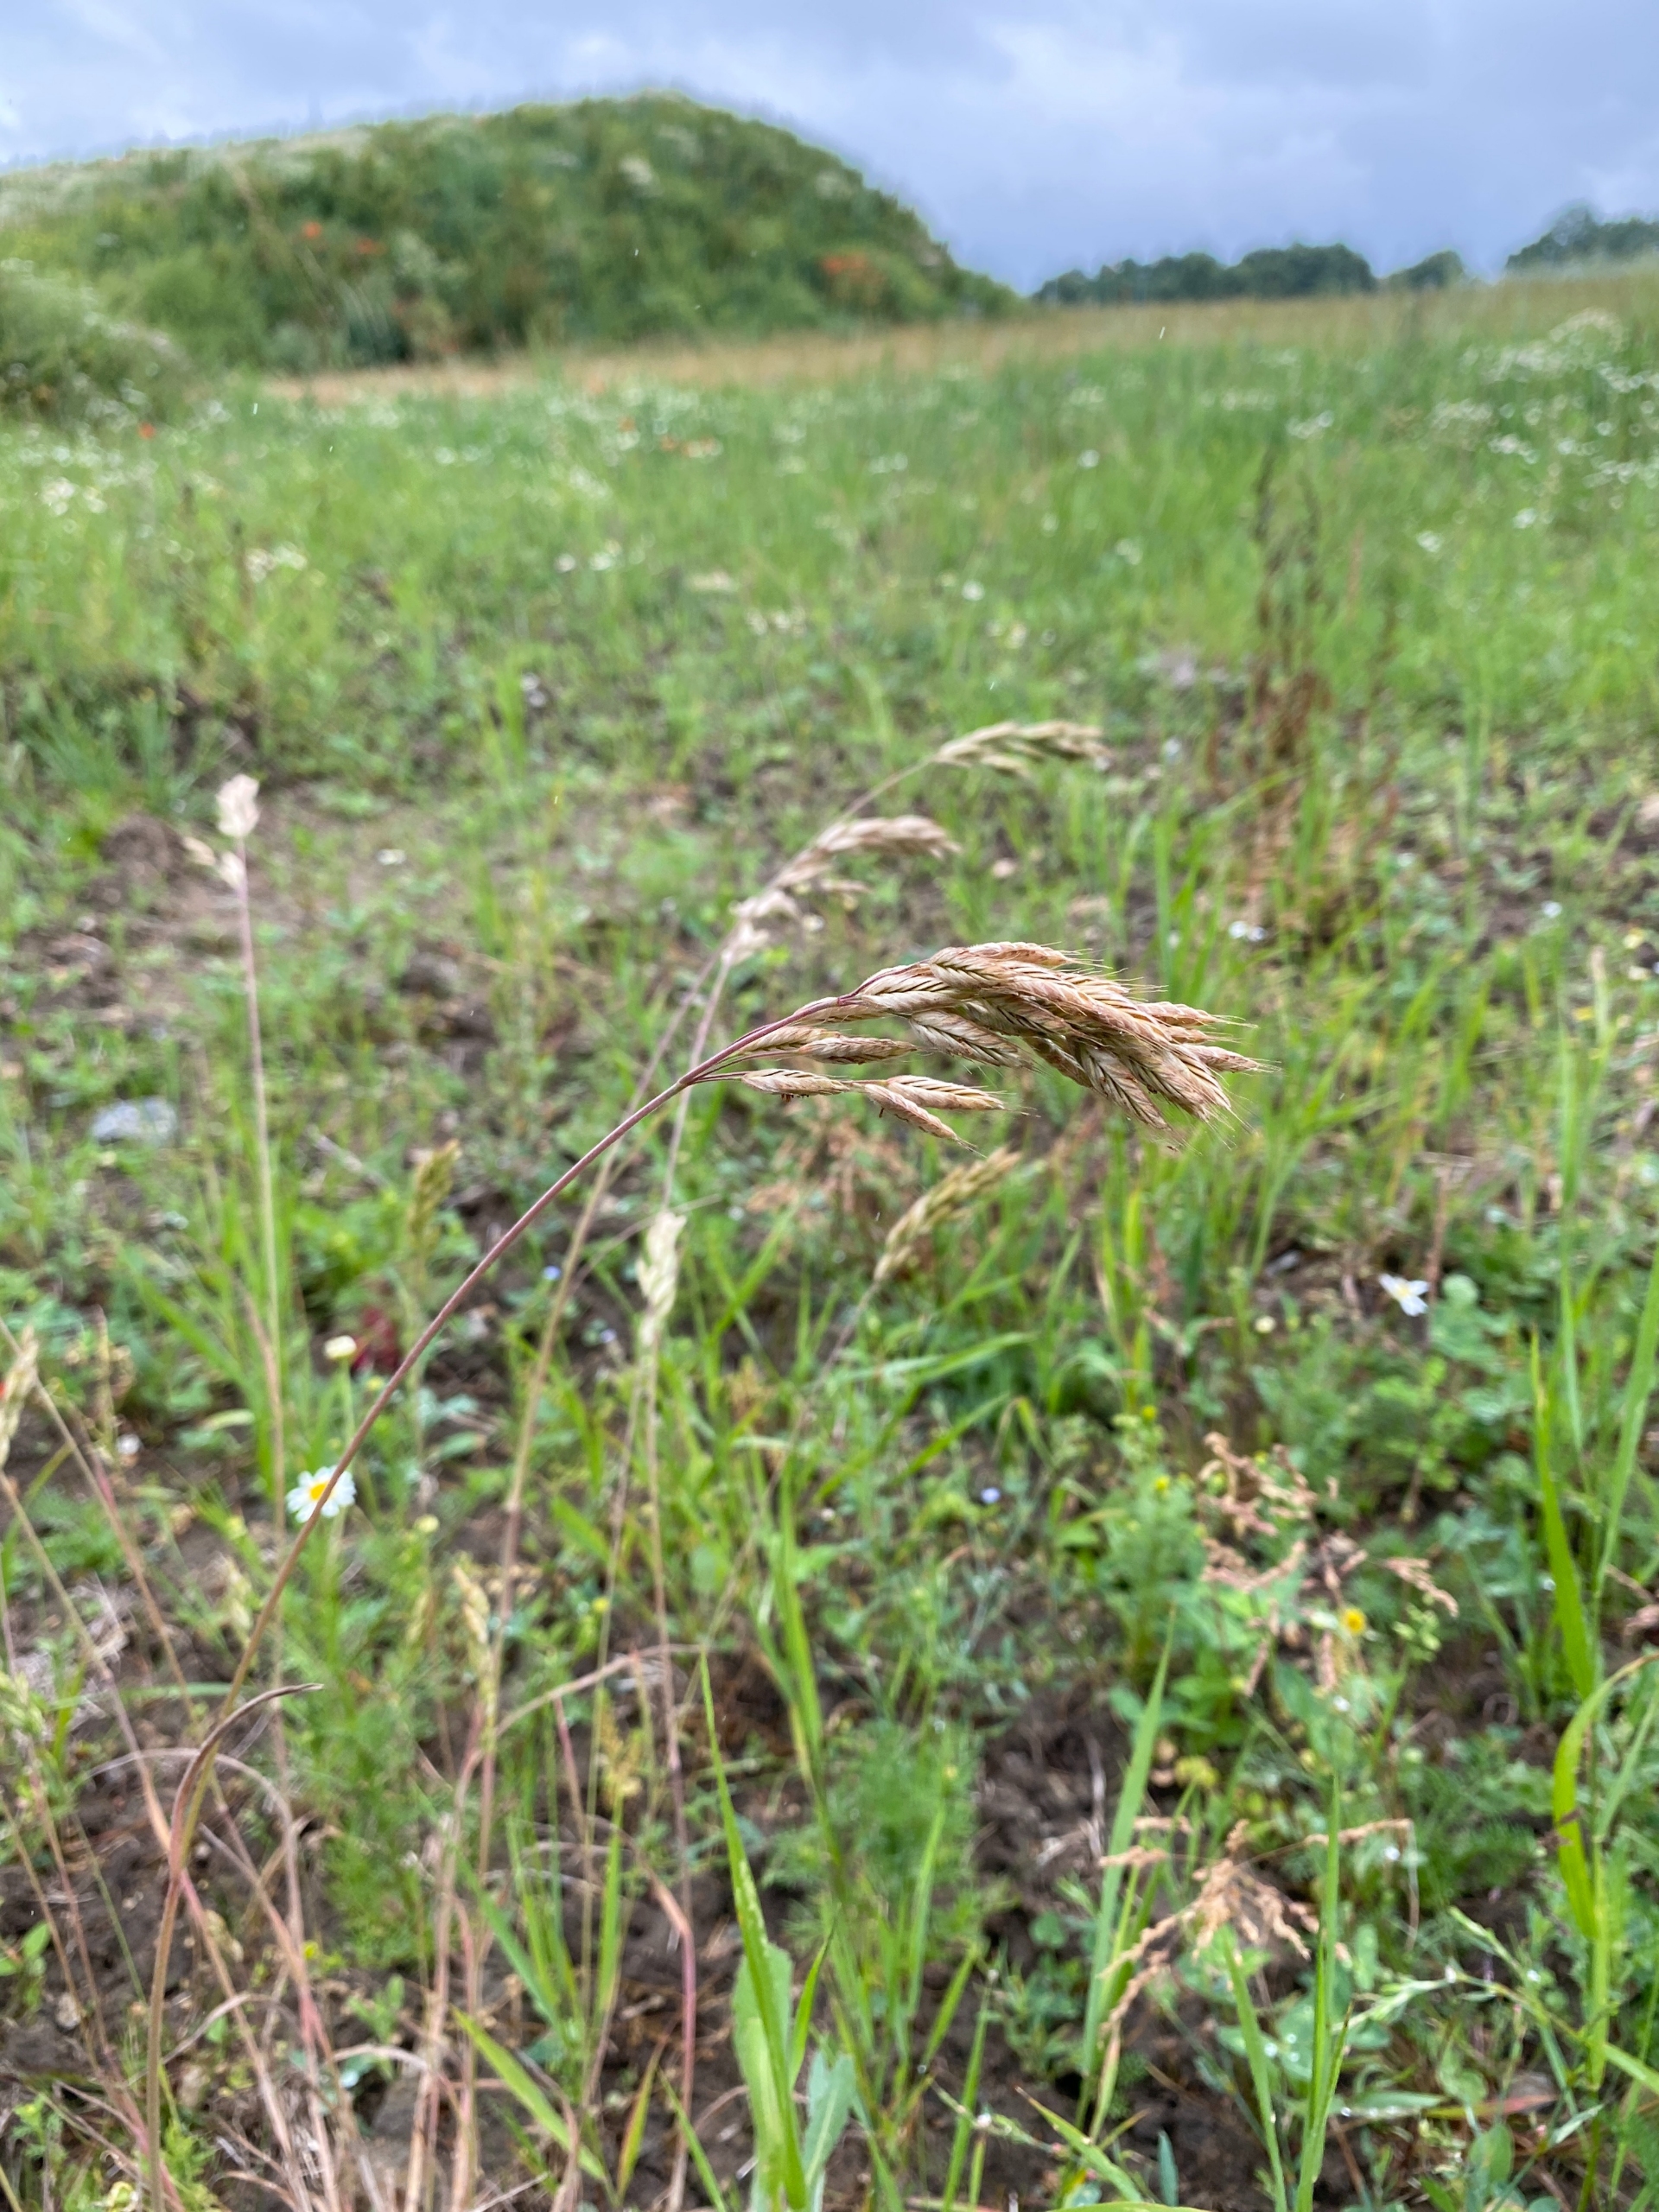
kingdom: Plantae
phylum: Tracheophyta
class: Liliopsida
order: Poales
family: Poaceae
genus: Bromus
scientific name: Bromus hordeaceus
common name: Blød hejre
